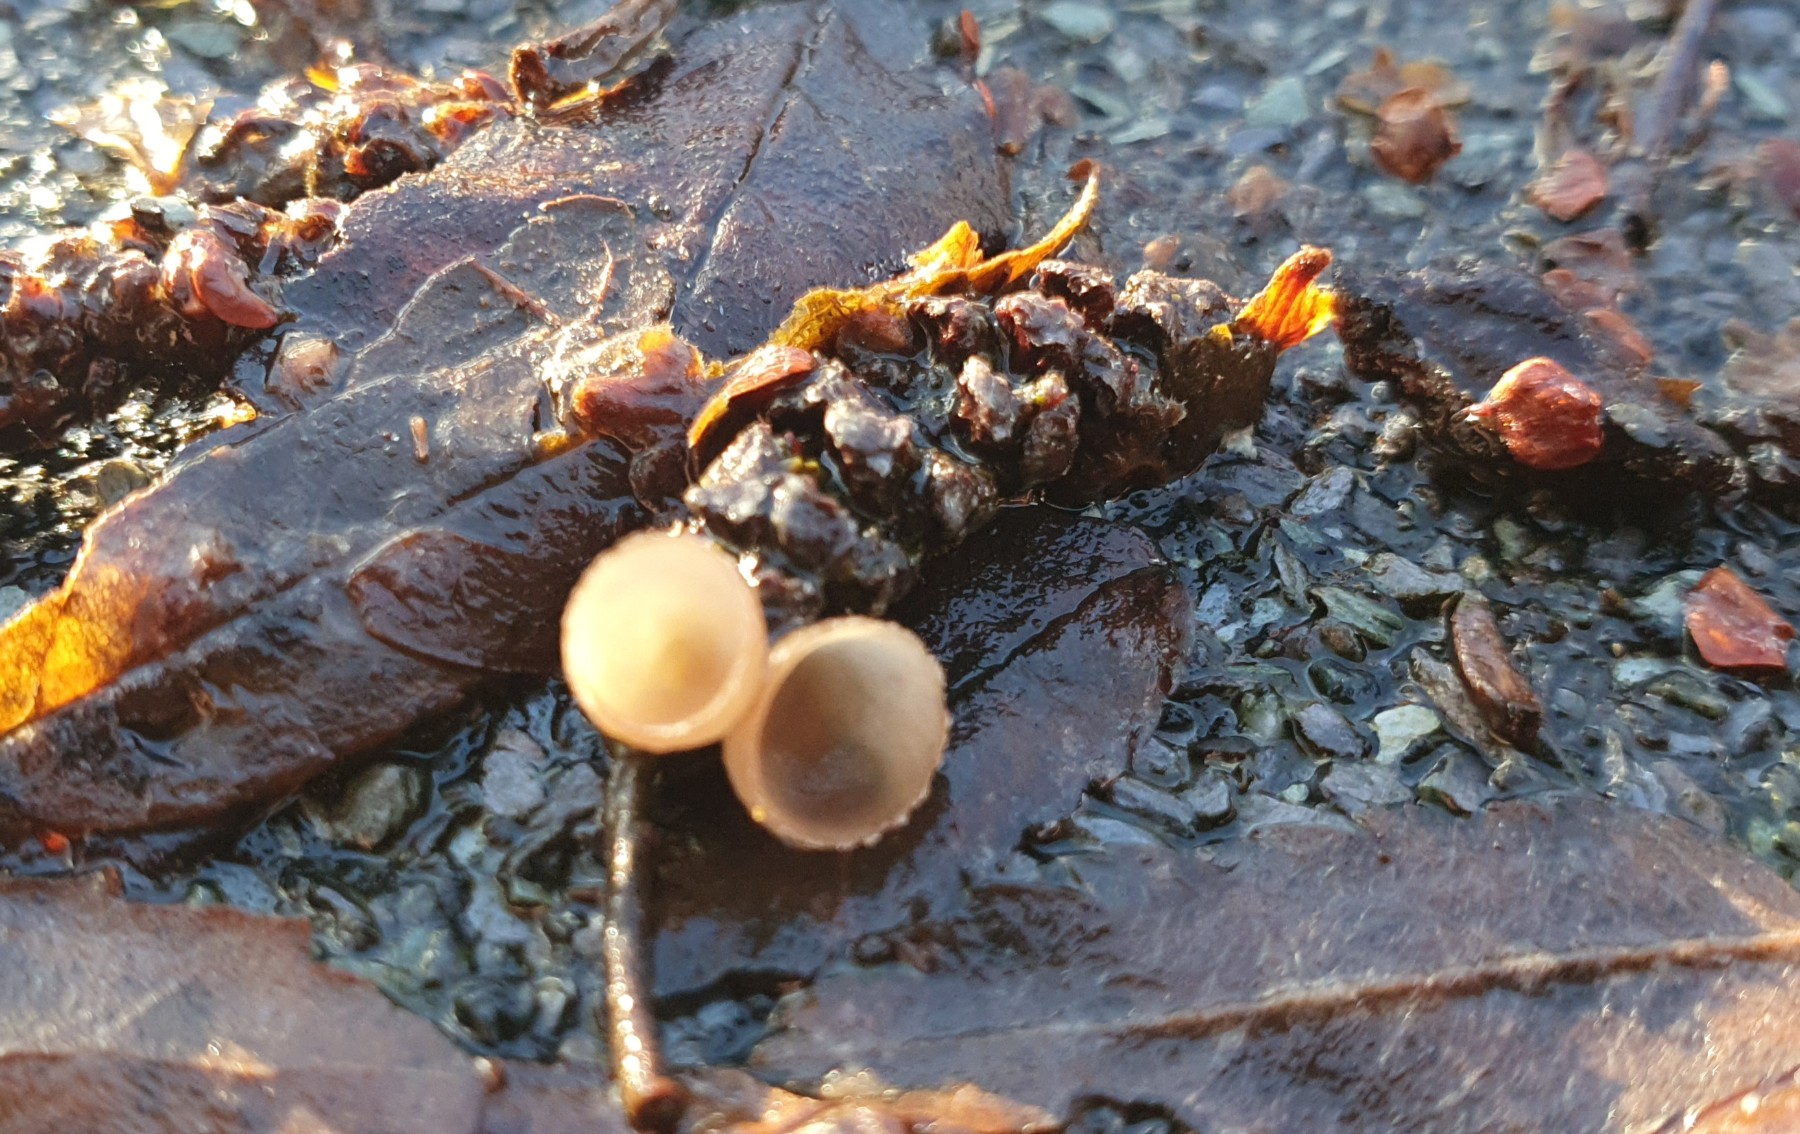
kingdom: Fungi
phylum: Ascomycota
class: Leotiomycetes
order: Helotiales
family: Sclerotiniaceae
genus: Ciboria
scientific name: Ciboria amentacea
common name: ellerakle-knoldskive
